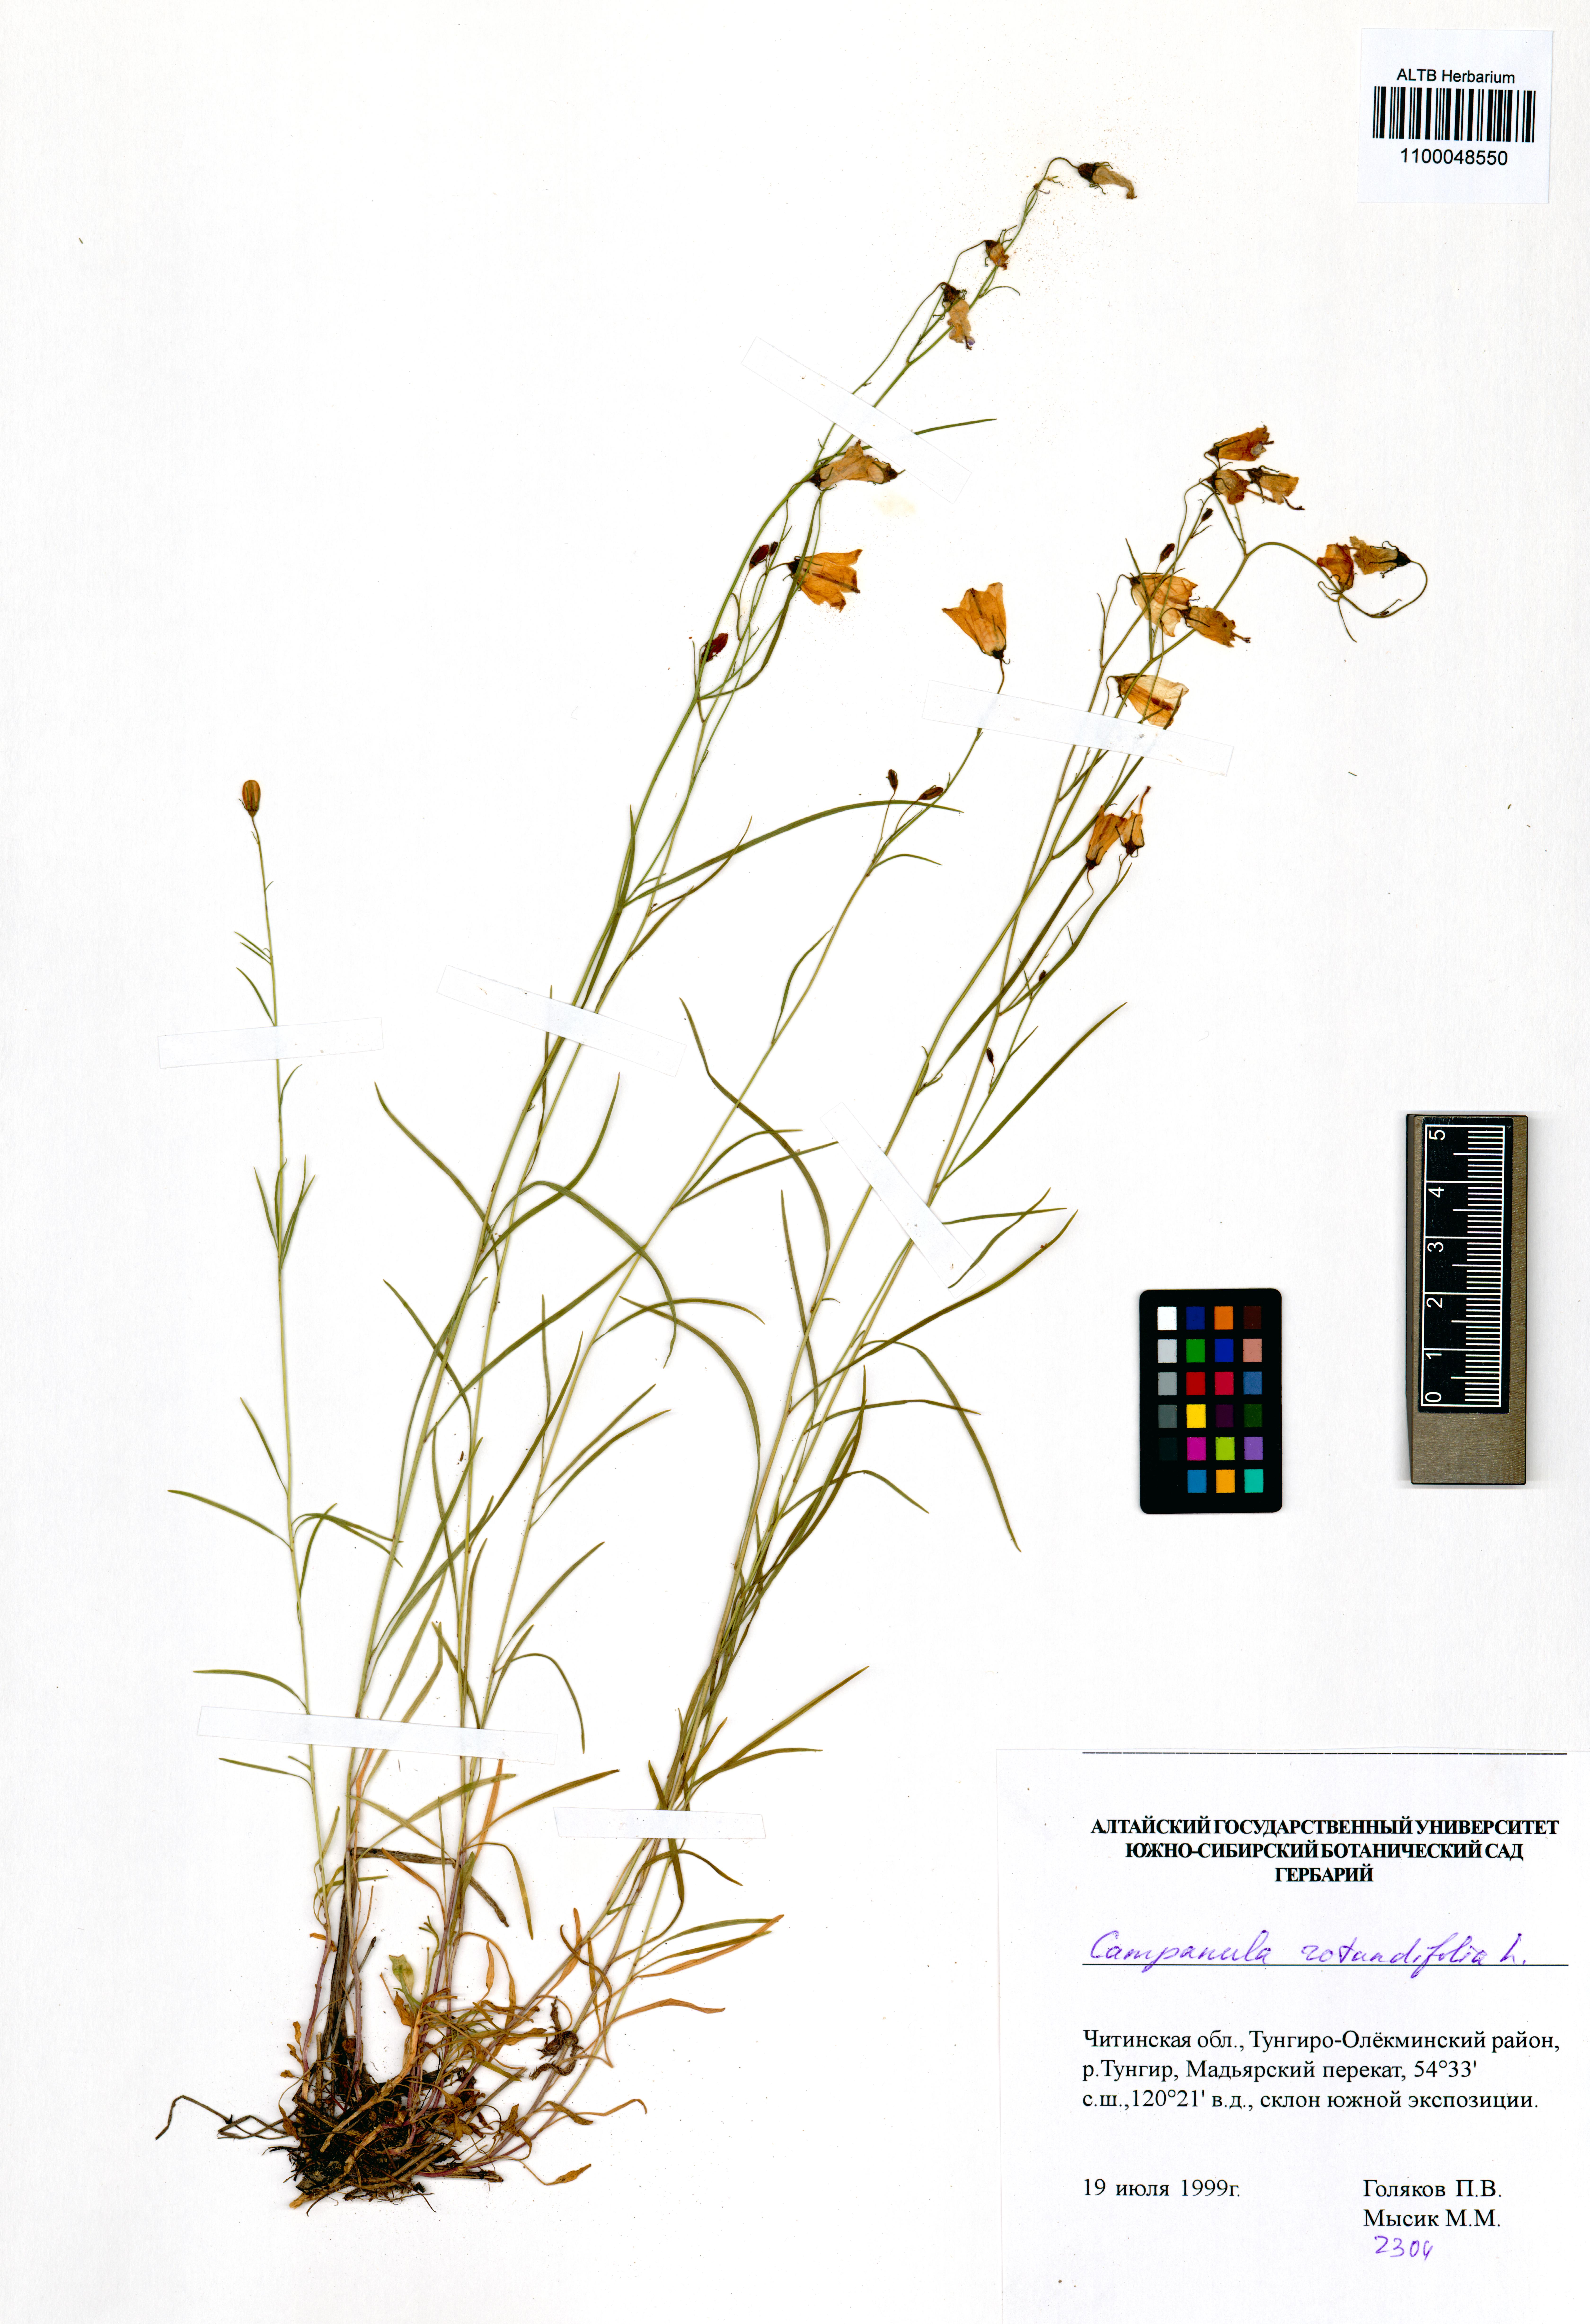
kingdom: Plantae
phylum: Tracheophyta
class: Magnoliopsida
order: Asterales
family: Campanulaceae
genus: Campanula
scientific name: Campanula rotundifolia
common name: Harebell
